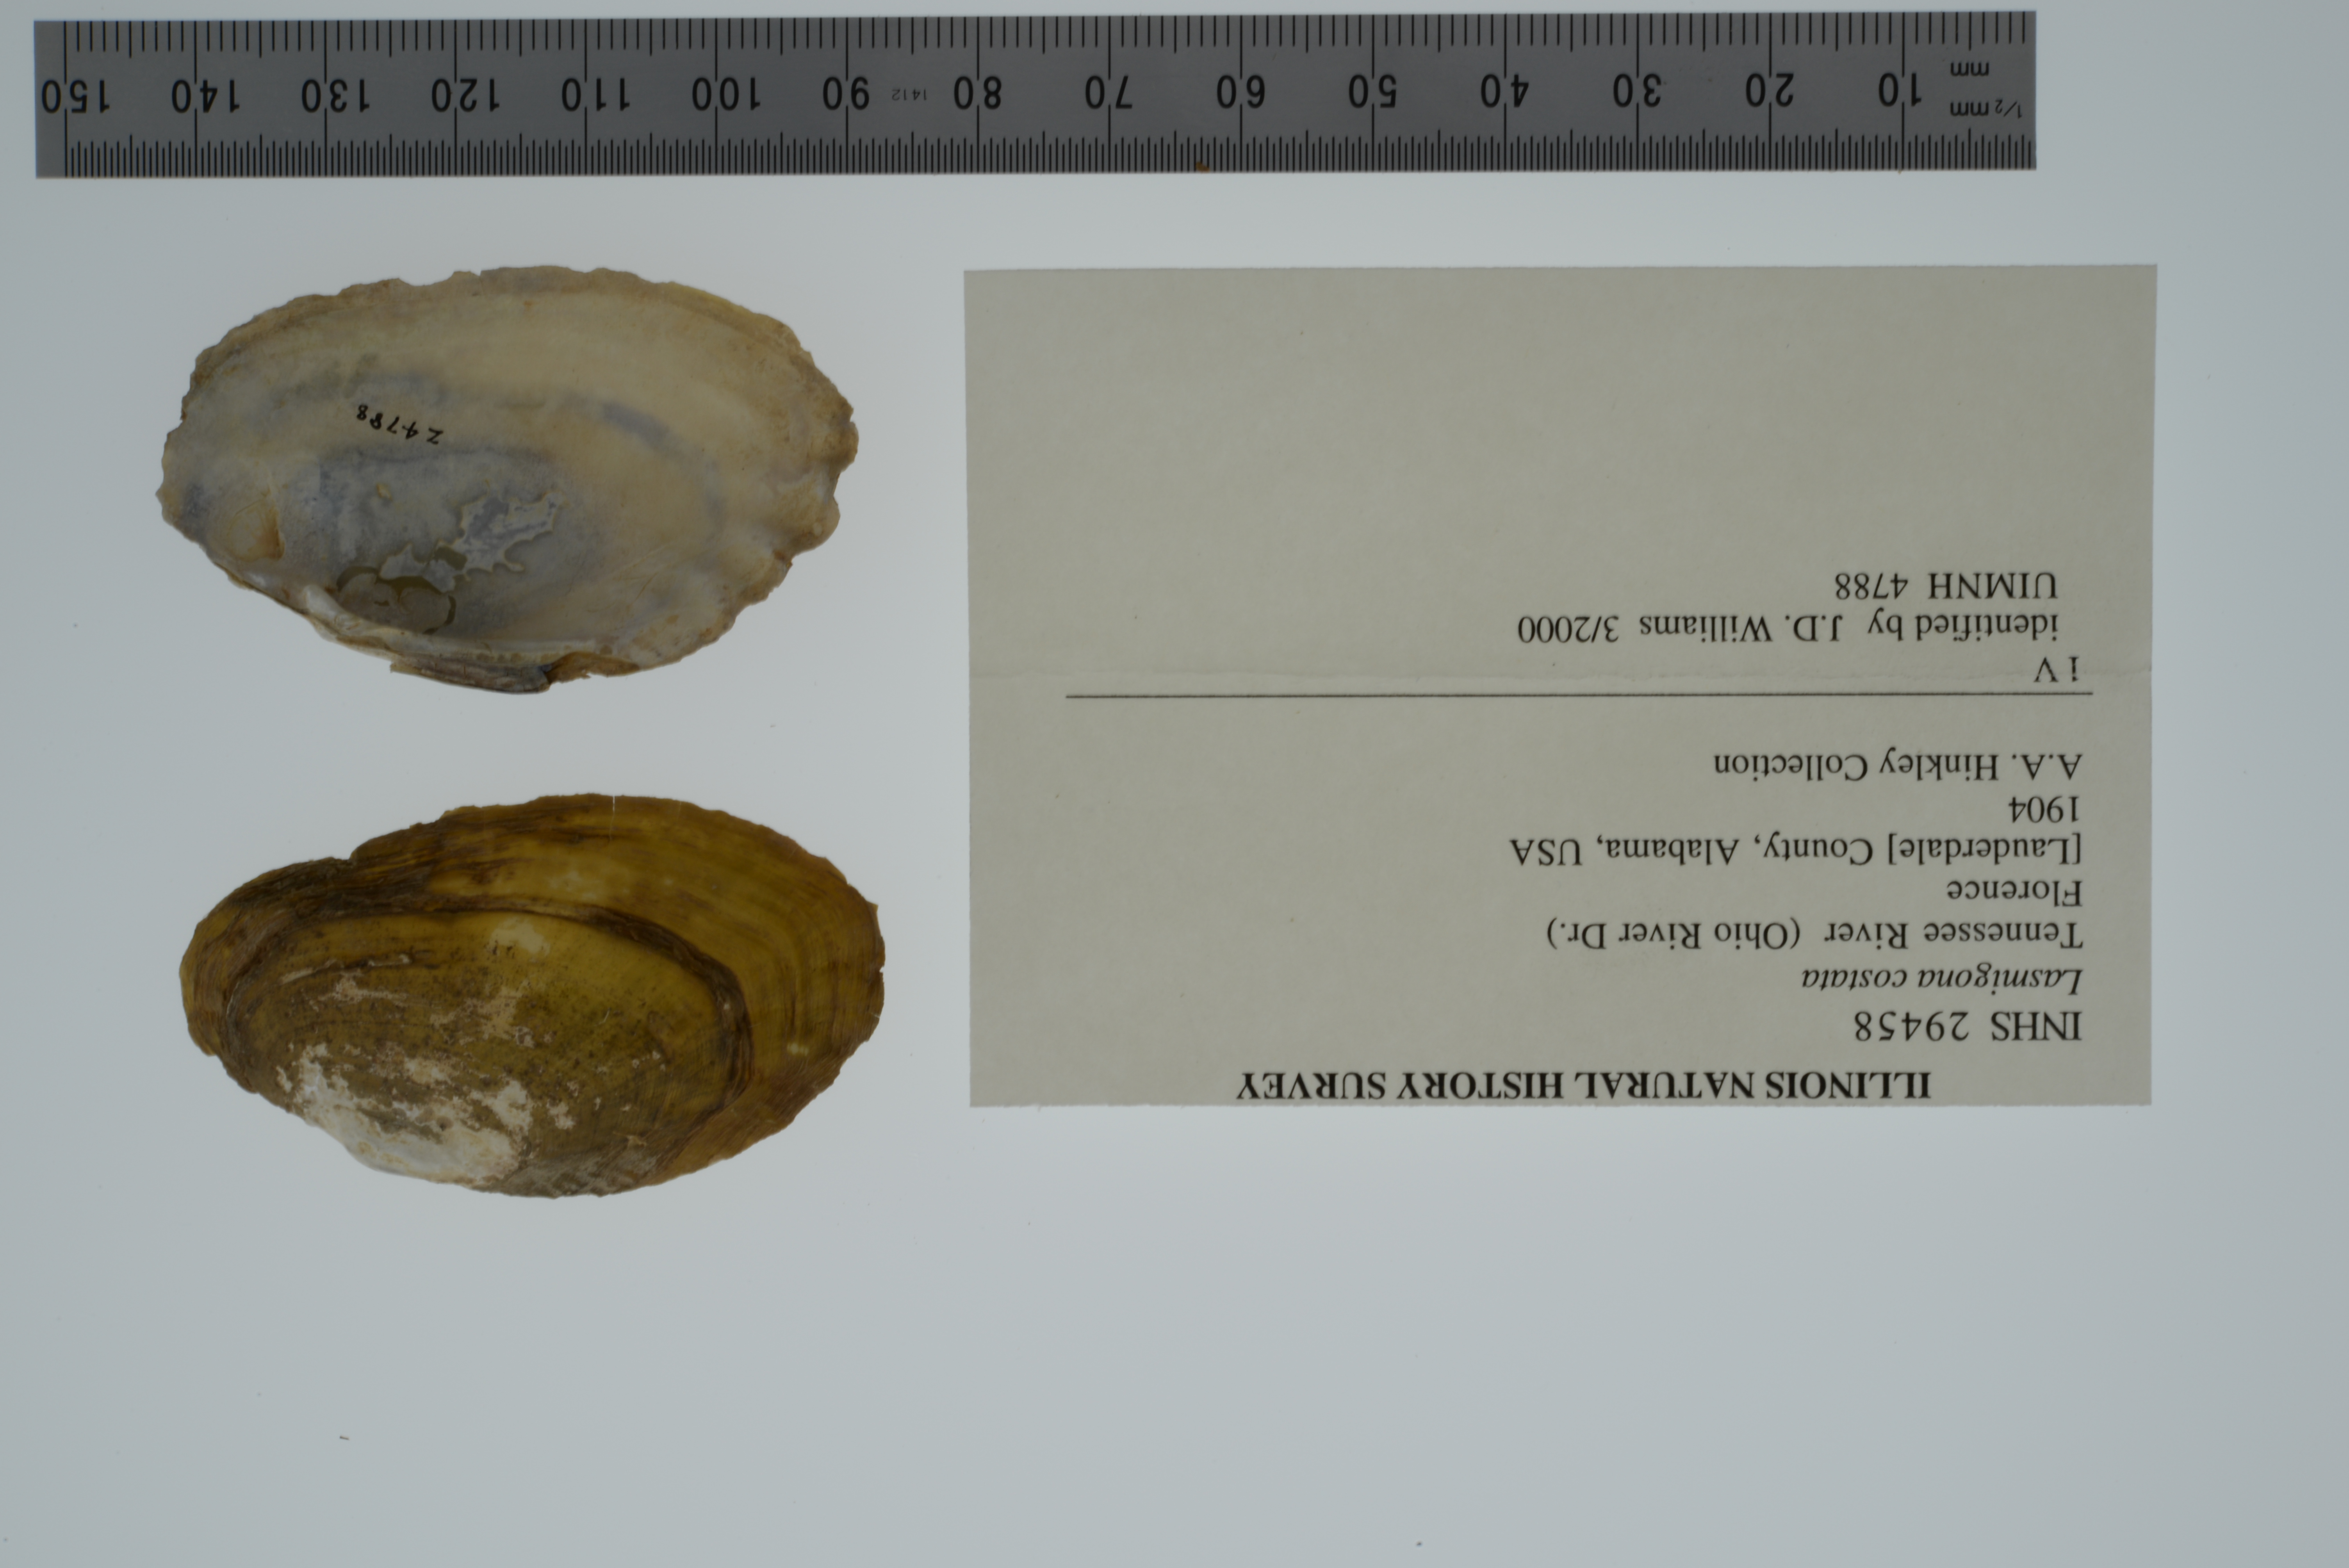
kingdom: Animalia
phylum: Mollusca
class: Bivalvia
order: Unionida
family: Unionidae
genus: Lasmigona
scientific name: Lasmigona costata
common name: Flutedshell
